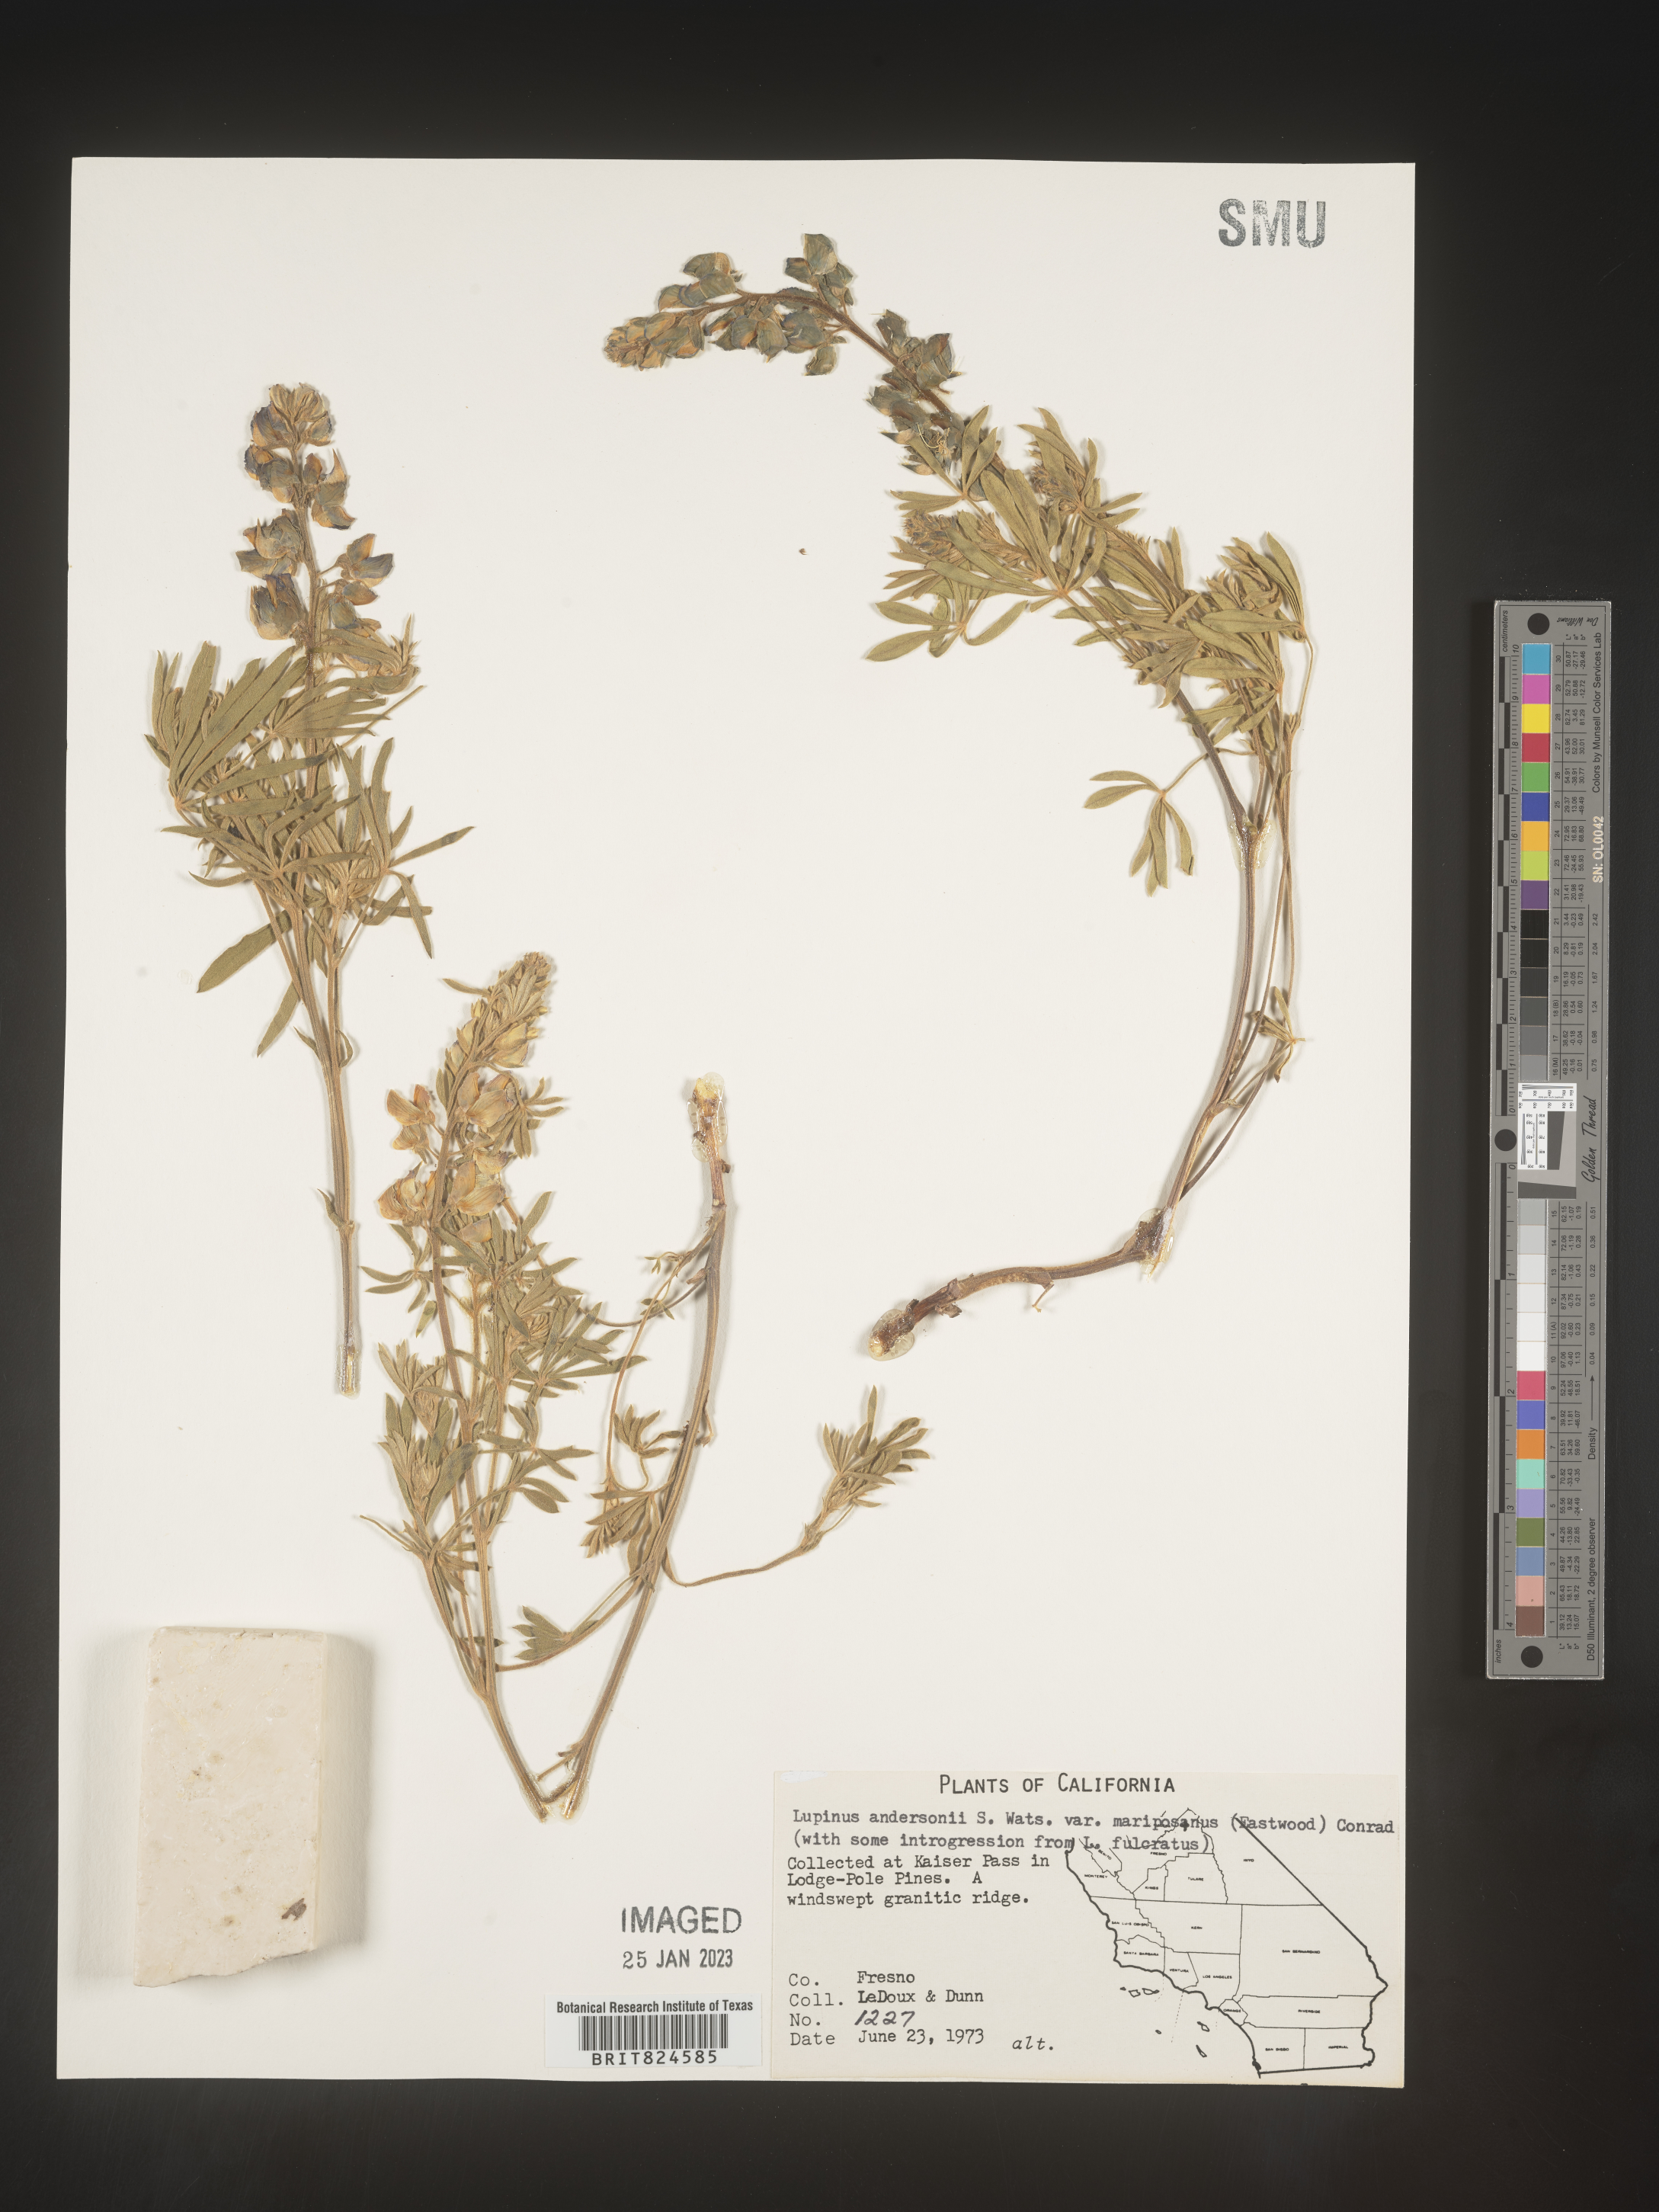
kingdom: Plantae
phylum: Tracheophyta
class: Magnoliopsida
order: Fabales
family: Fabaceae
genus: Lupinus
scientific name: Lupinus
